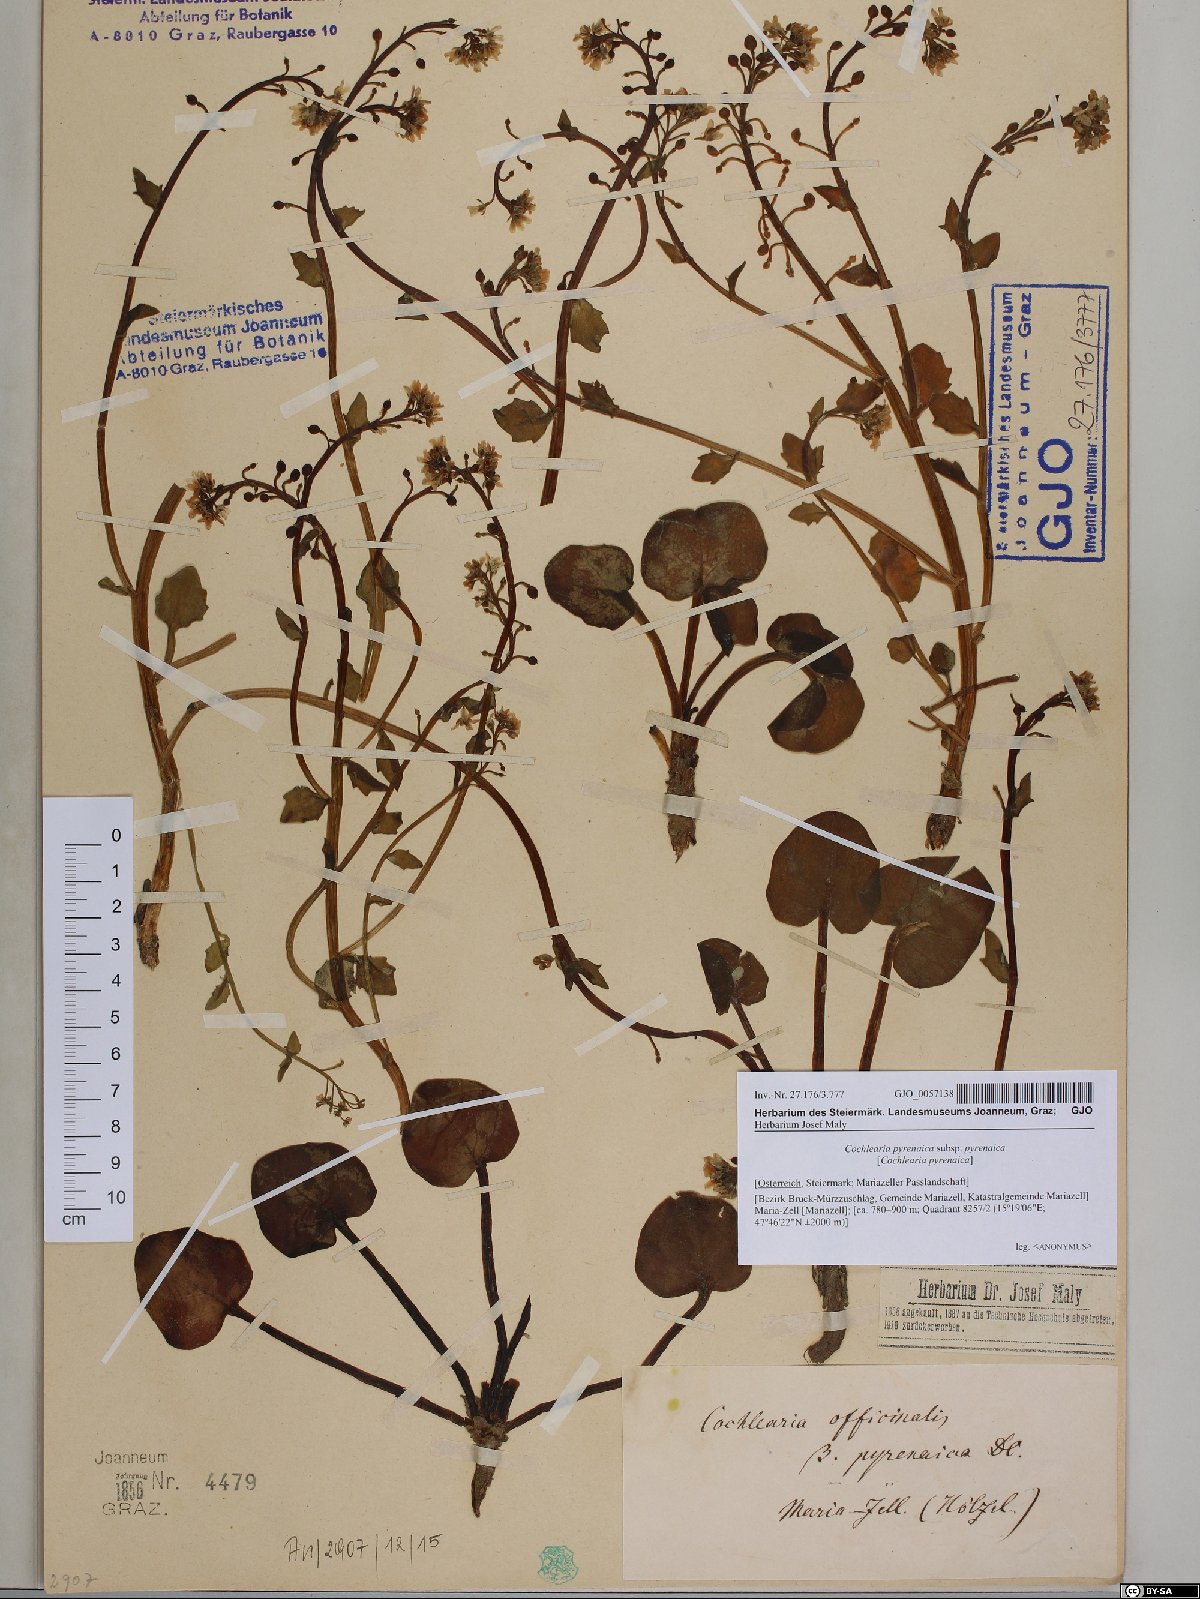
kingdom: Plantae
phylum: Tracheophyta
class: Magnoliopsida
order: Brassicales
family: Brassicaceae
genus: Cochlearia
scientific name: Cochlearia pyrenaica
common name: Upland scurvy-grass
